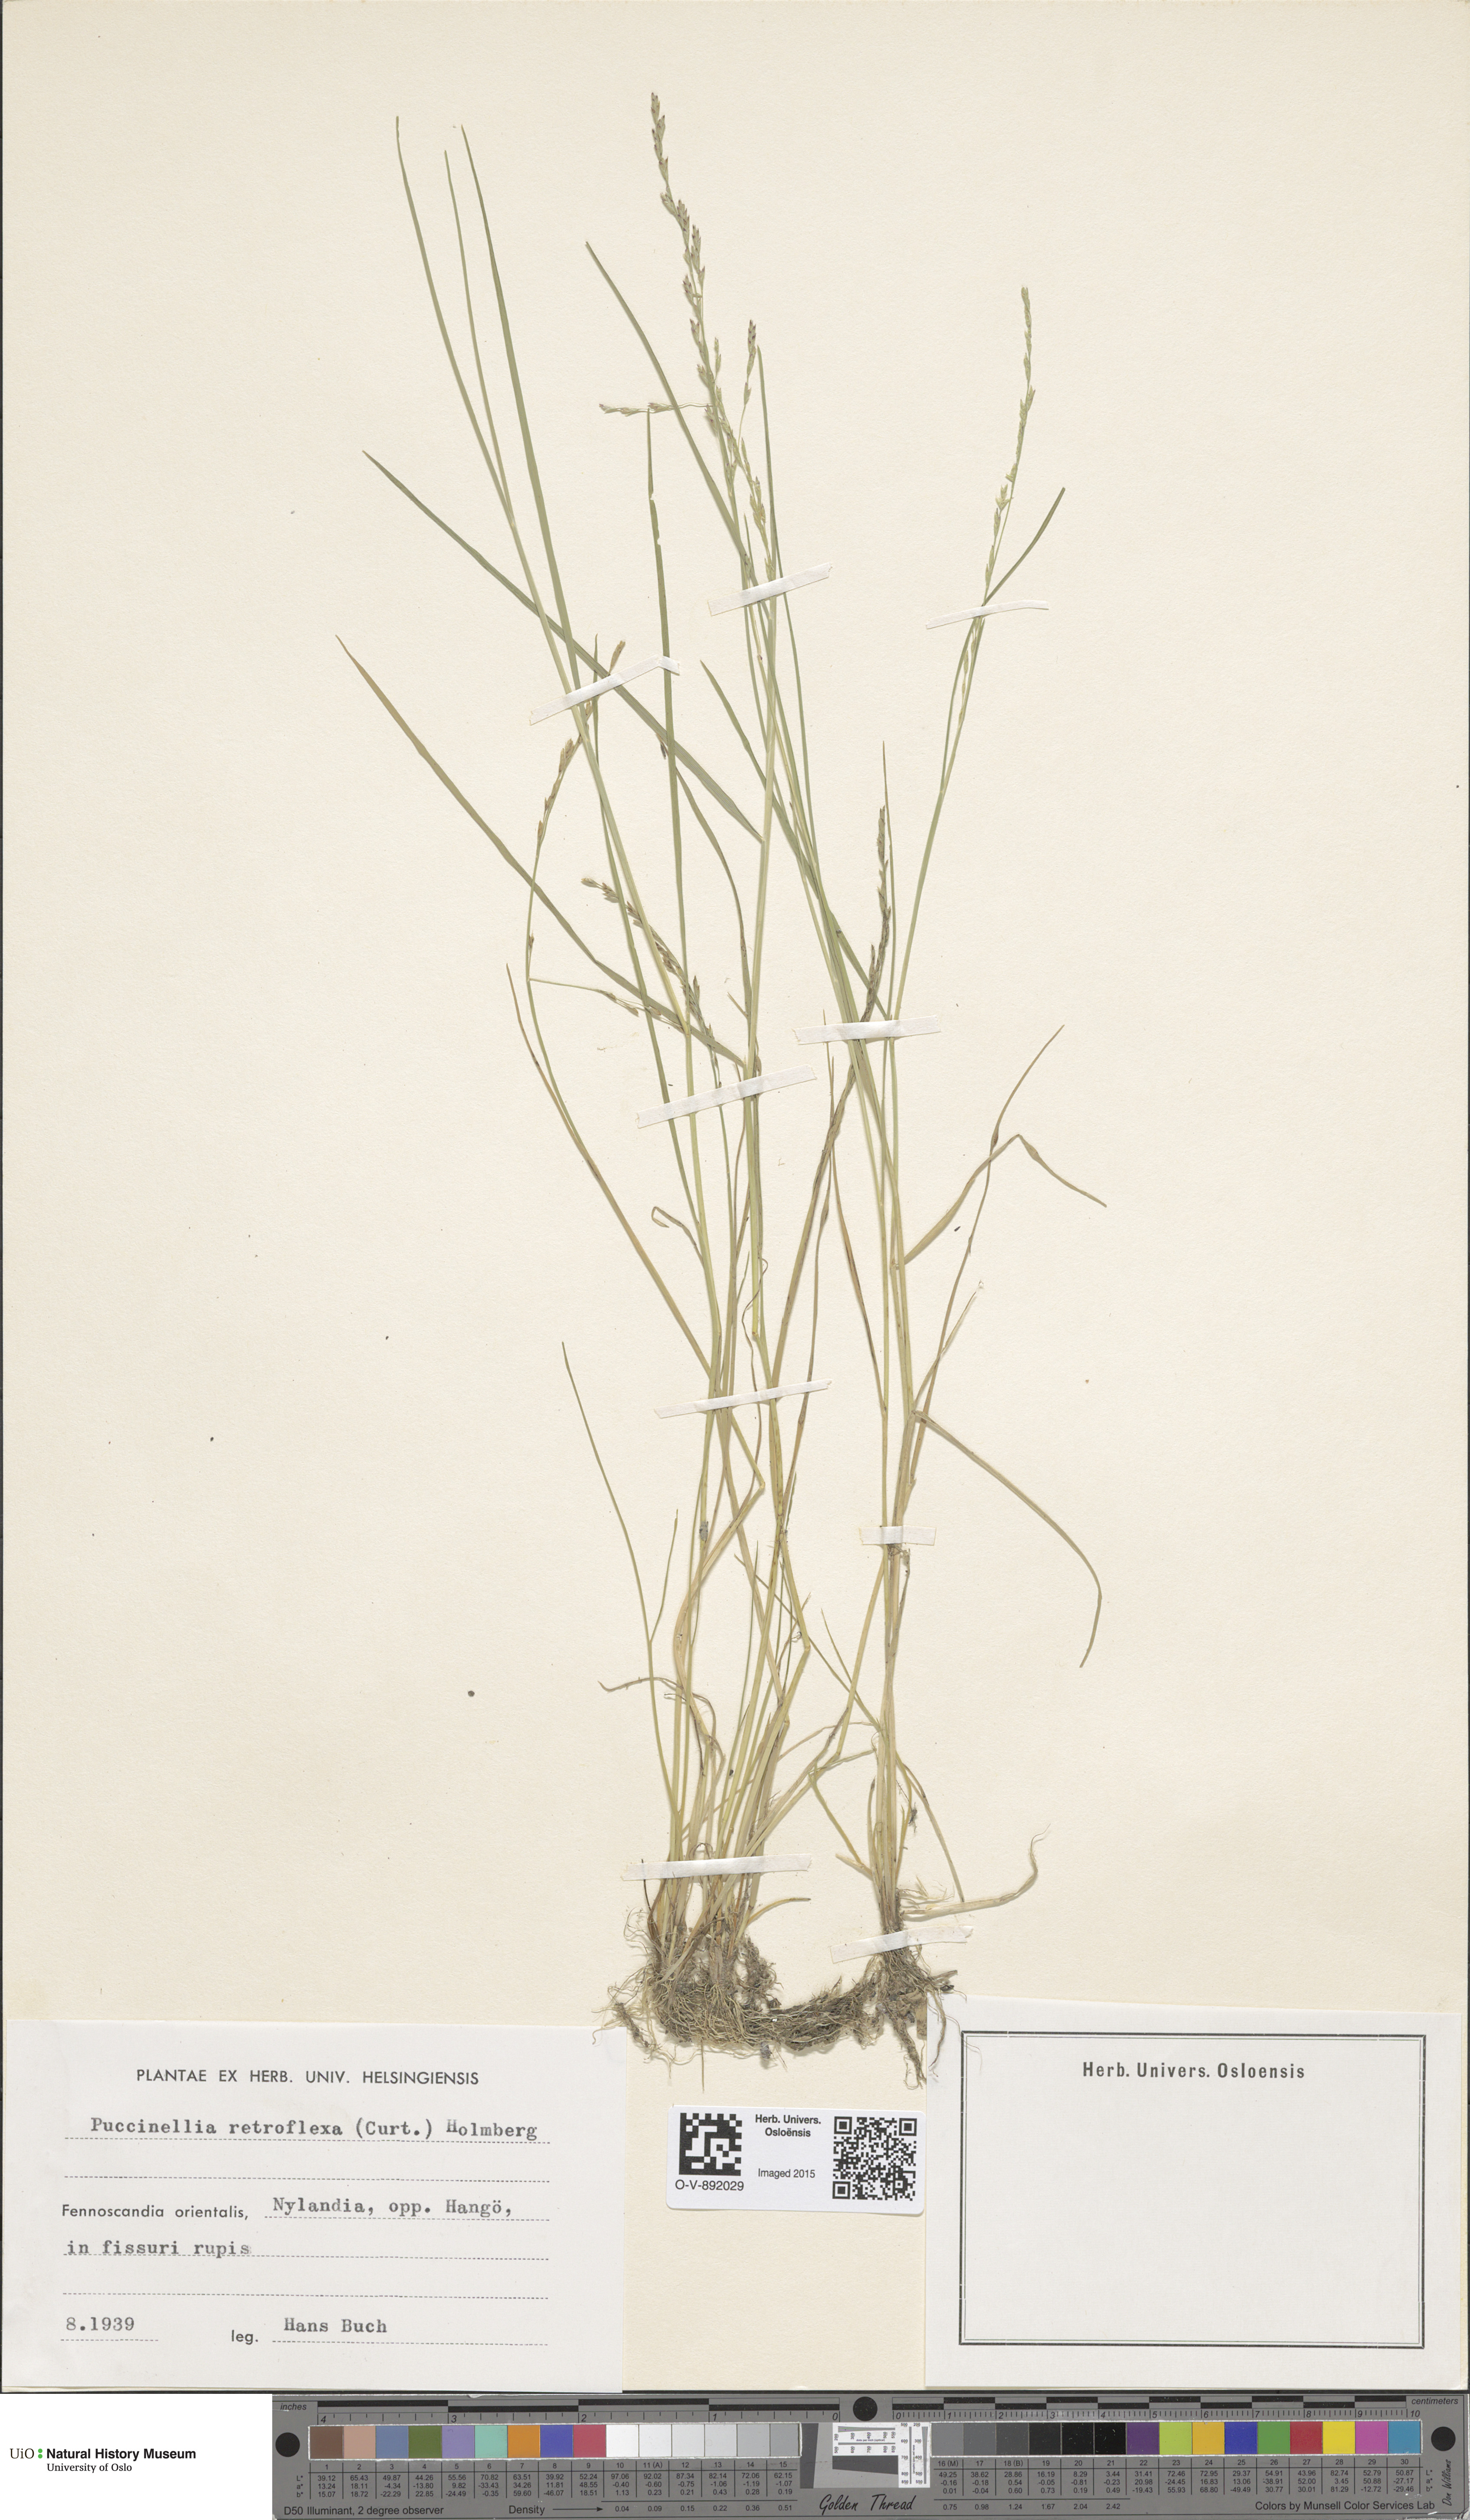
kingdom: Plantae
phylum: Tracheophyta
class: Liliopsida
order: Poales
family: Poaceae
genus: Puccinellia
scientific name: Puccinellia distans
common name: Weeping alkaligrass
